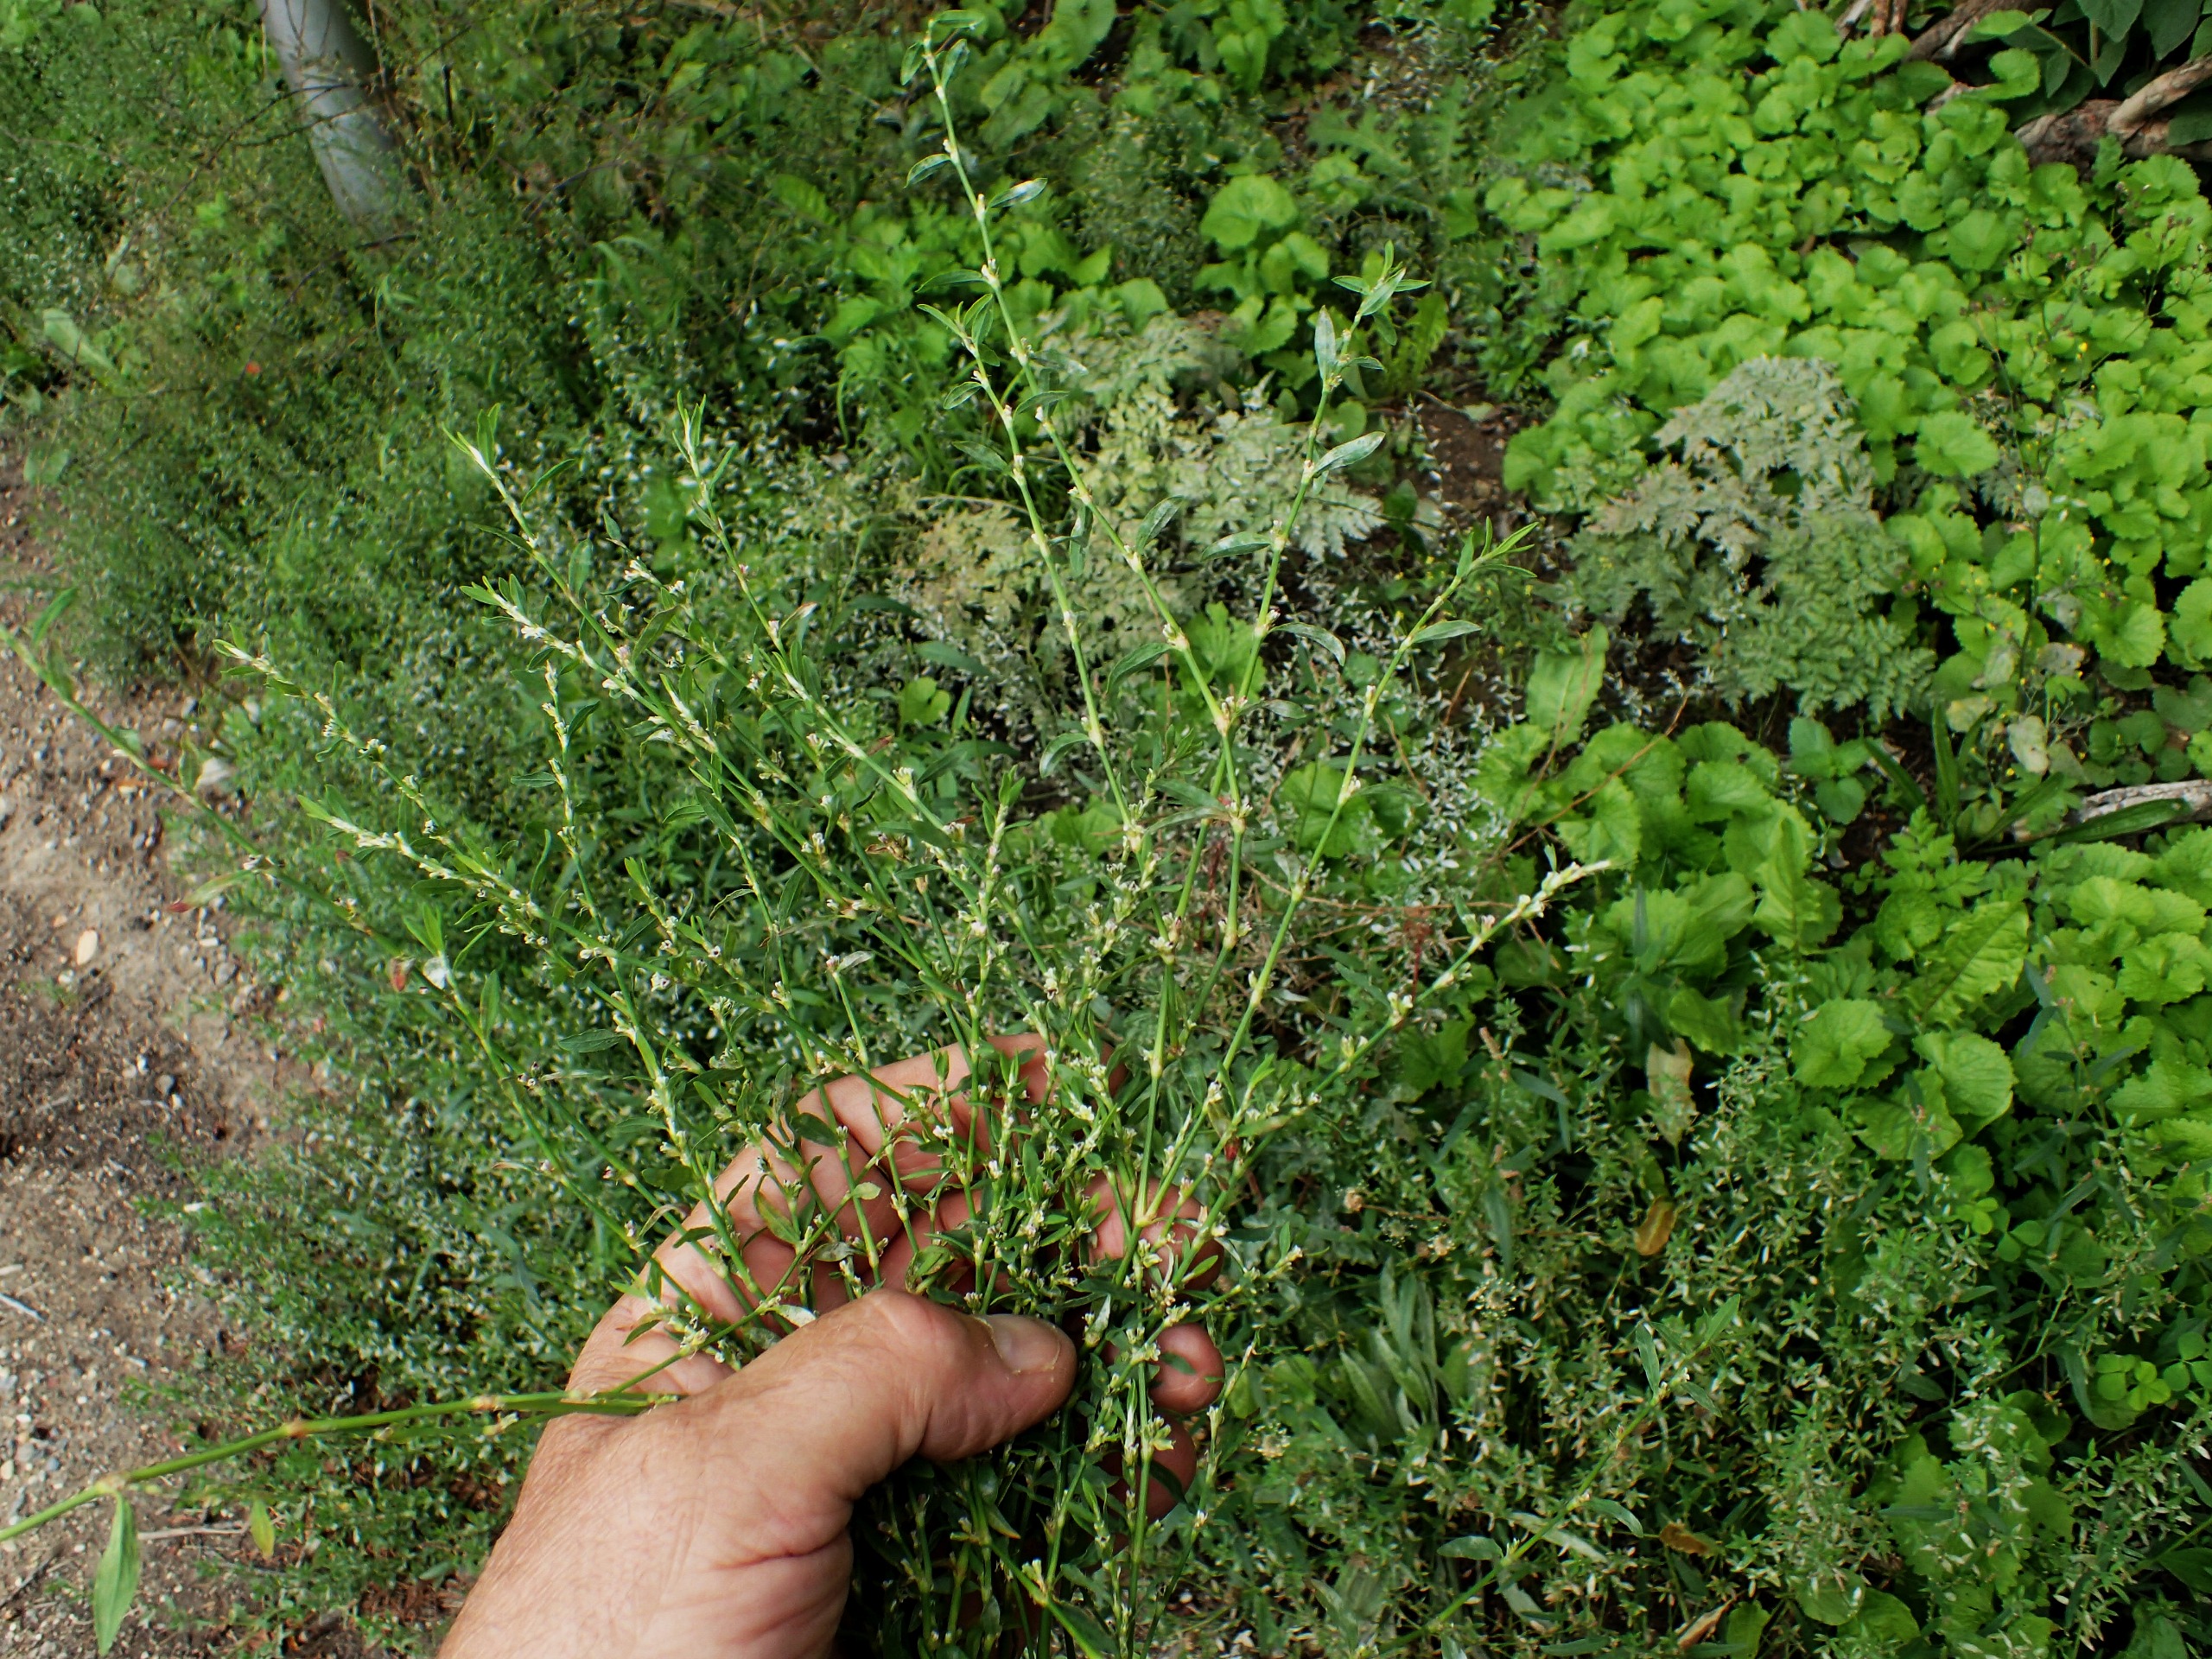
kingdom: Plantae
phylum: Tracheophyta
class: Magnoliopsida
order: Caryophyllales
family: Polygonaceae
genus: Polygonum
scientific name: Polygonum aviculare
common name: Vej-pileurt
